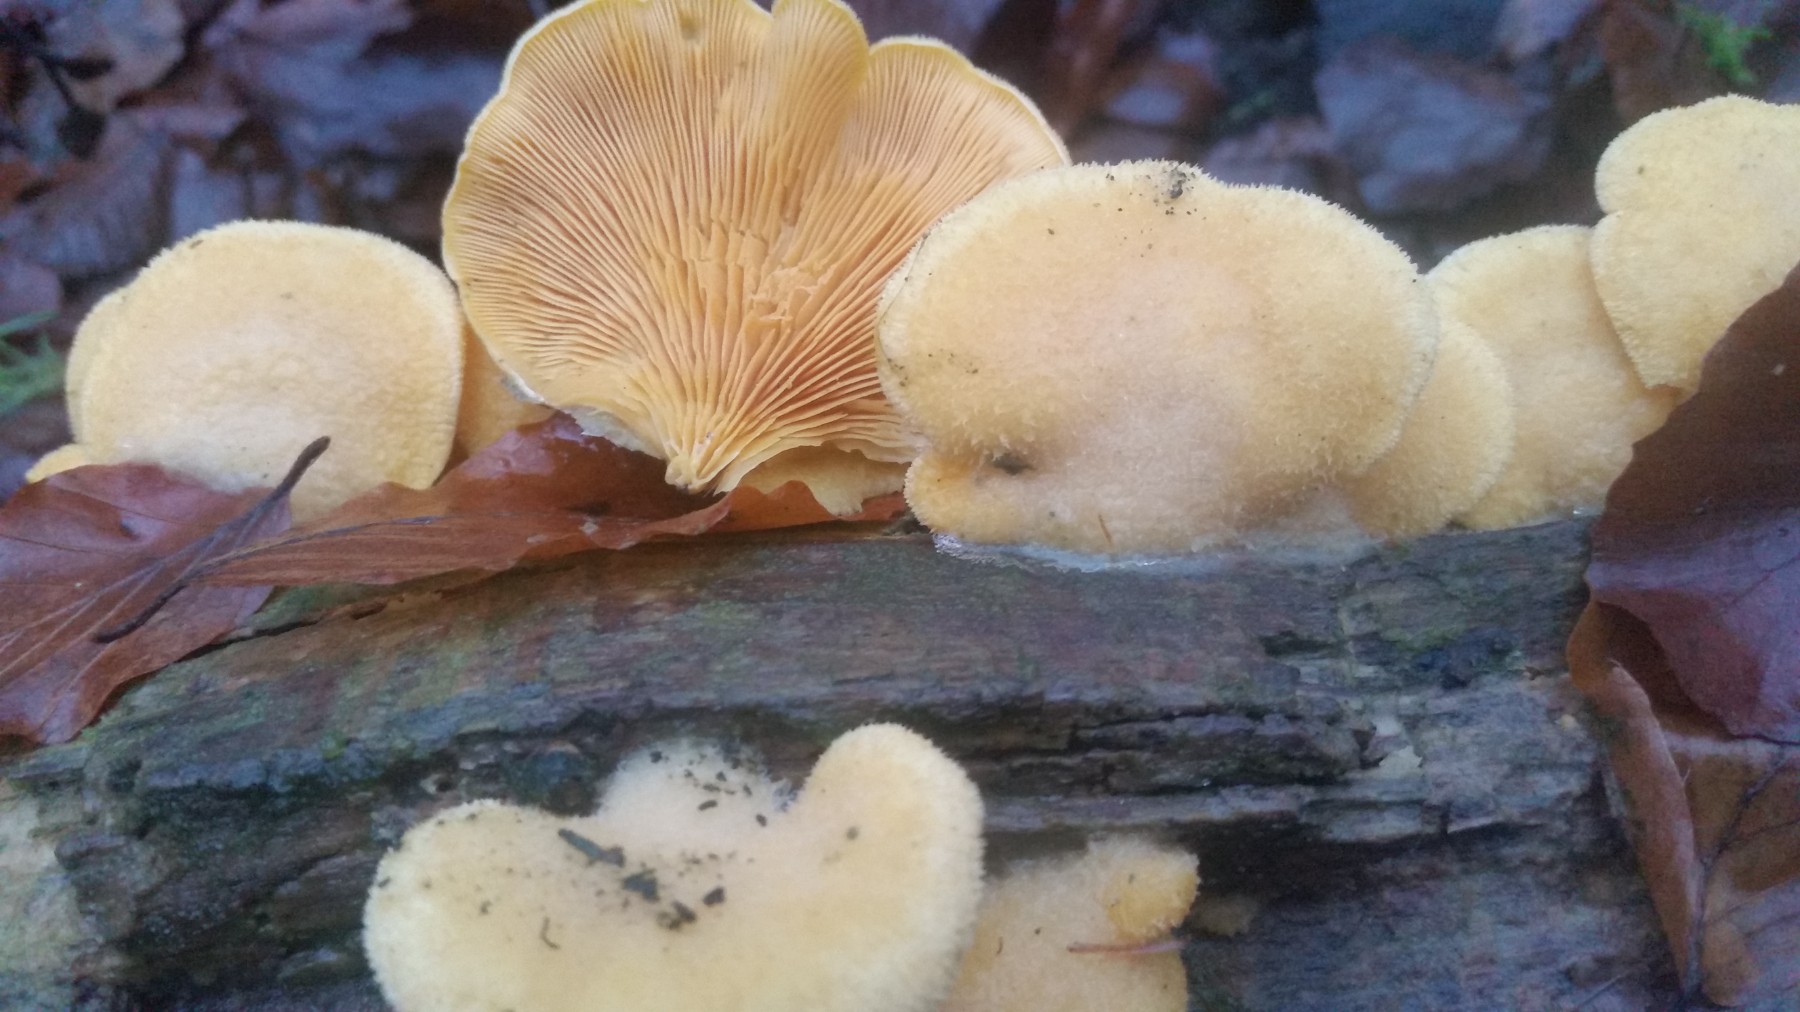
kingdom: Fungi
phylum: Basidiomycota
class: Agaricomycetes
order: Agaricales
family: Phyllotopsidaceae
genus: Phyllotopsis
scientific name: Phyllotopsis nidulans
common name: okkerblad
